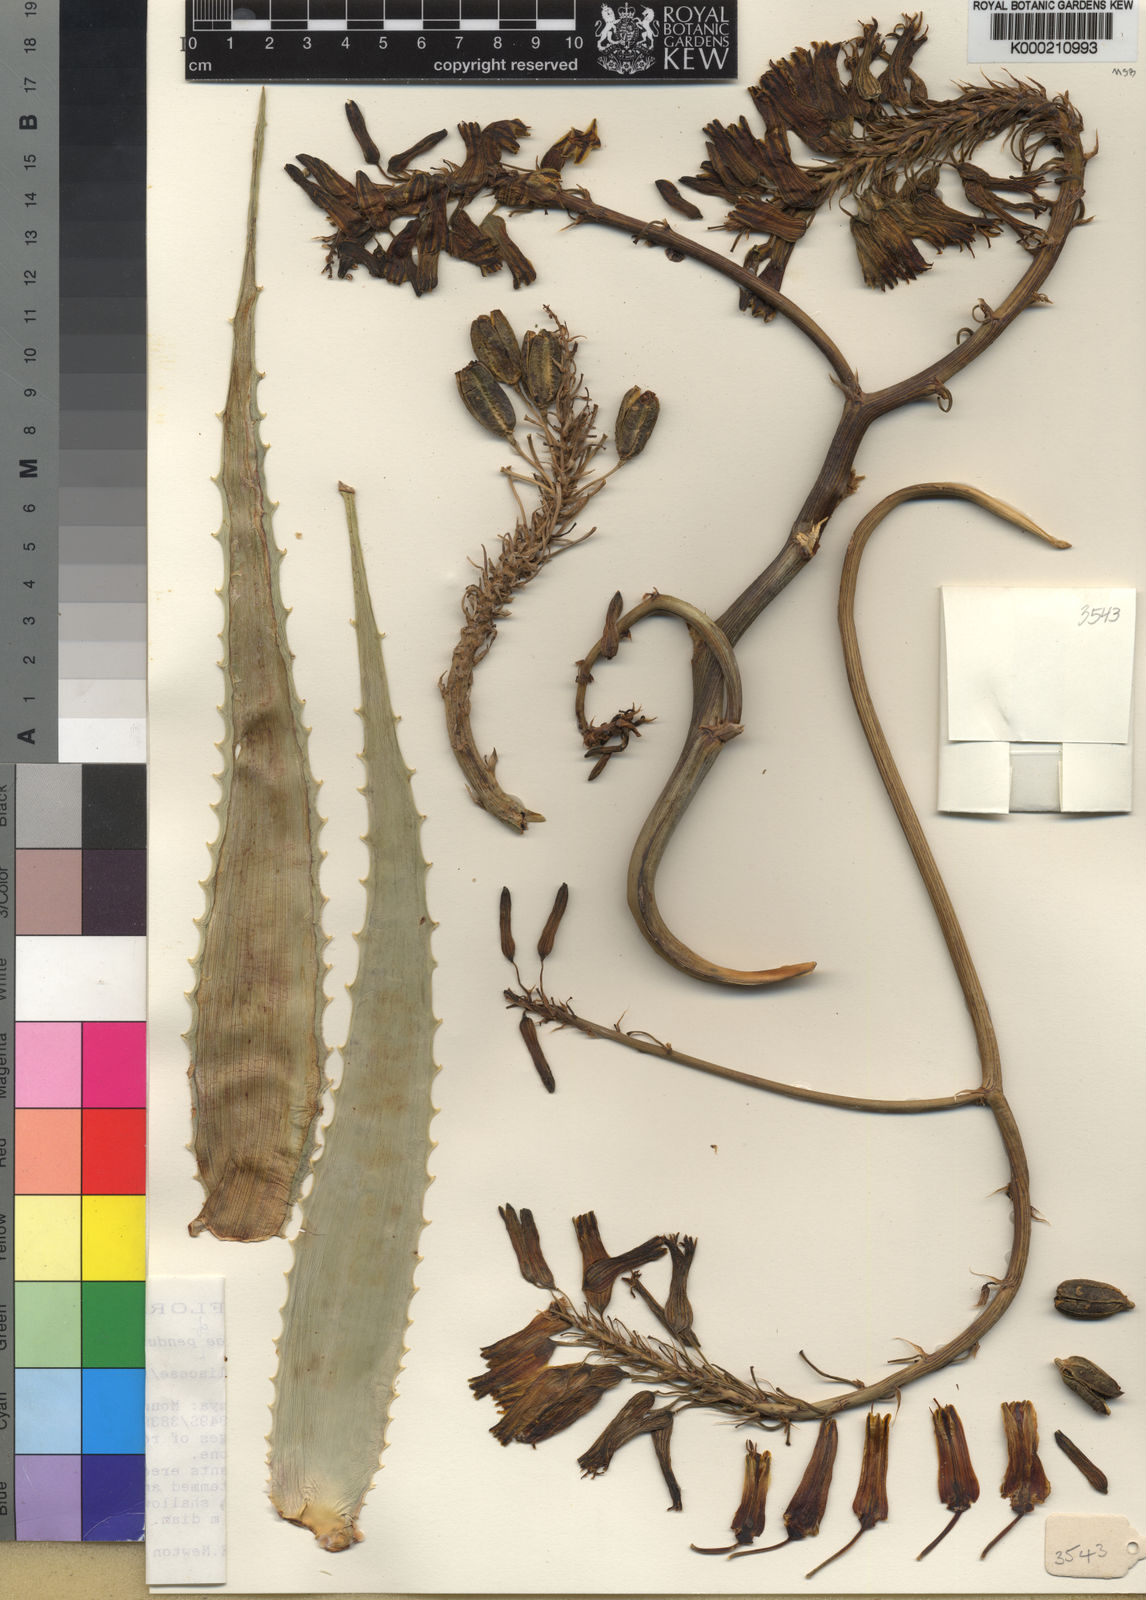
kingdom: Plantae
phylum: Tracheophyta
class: Liliopsida
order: Asparagales
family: Asphodelaceae
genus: Aloe
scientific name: Aloe penduliflora
